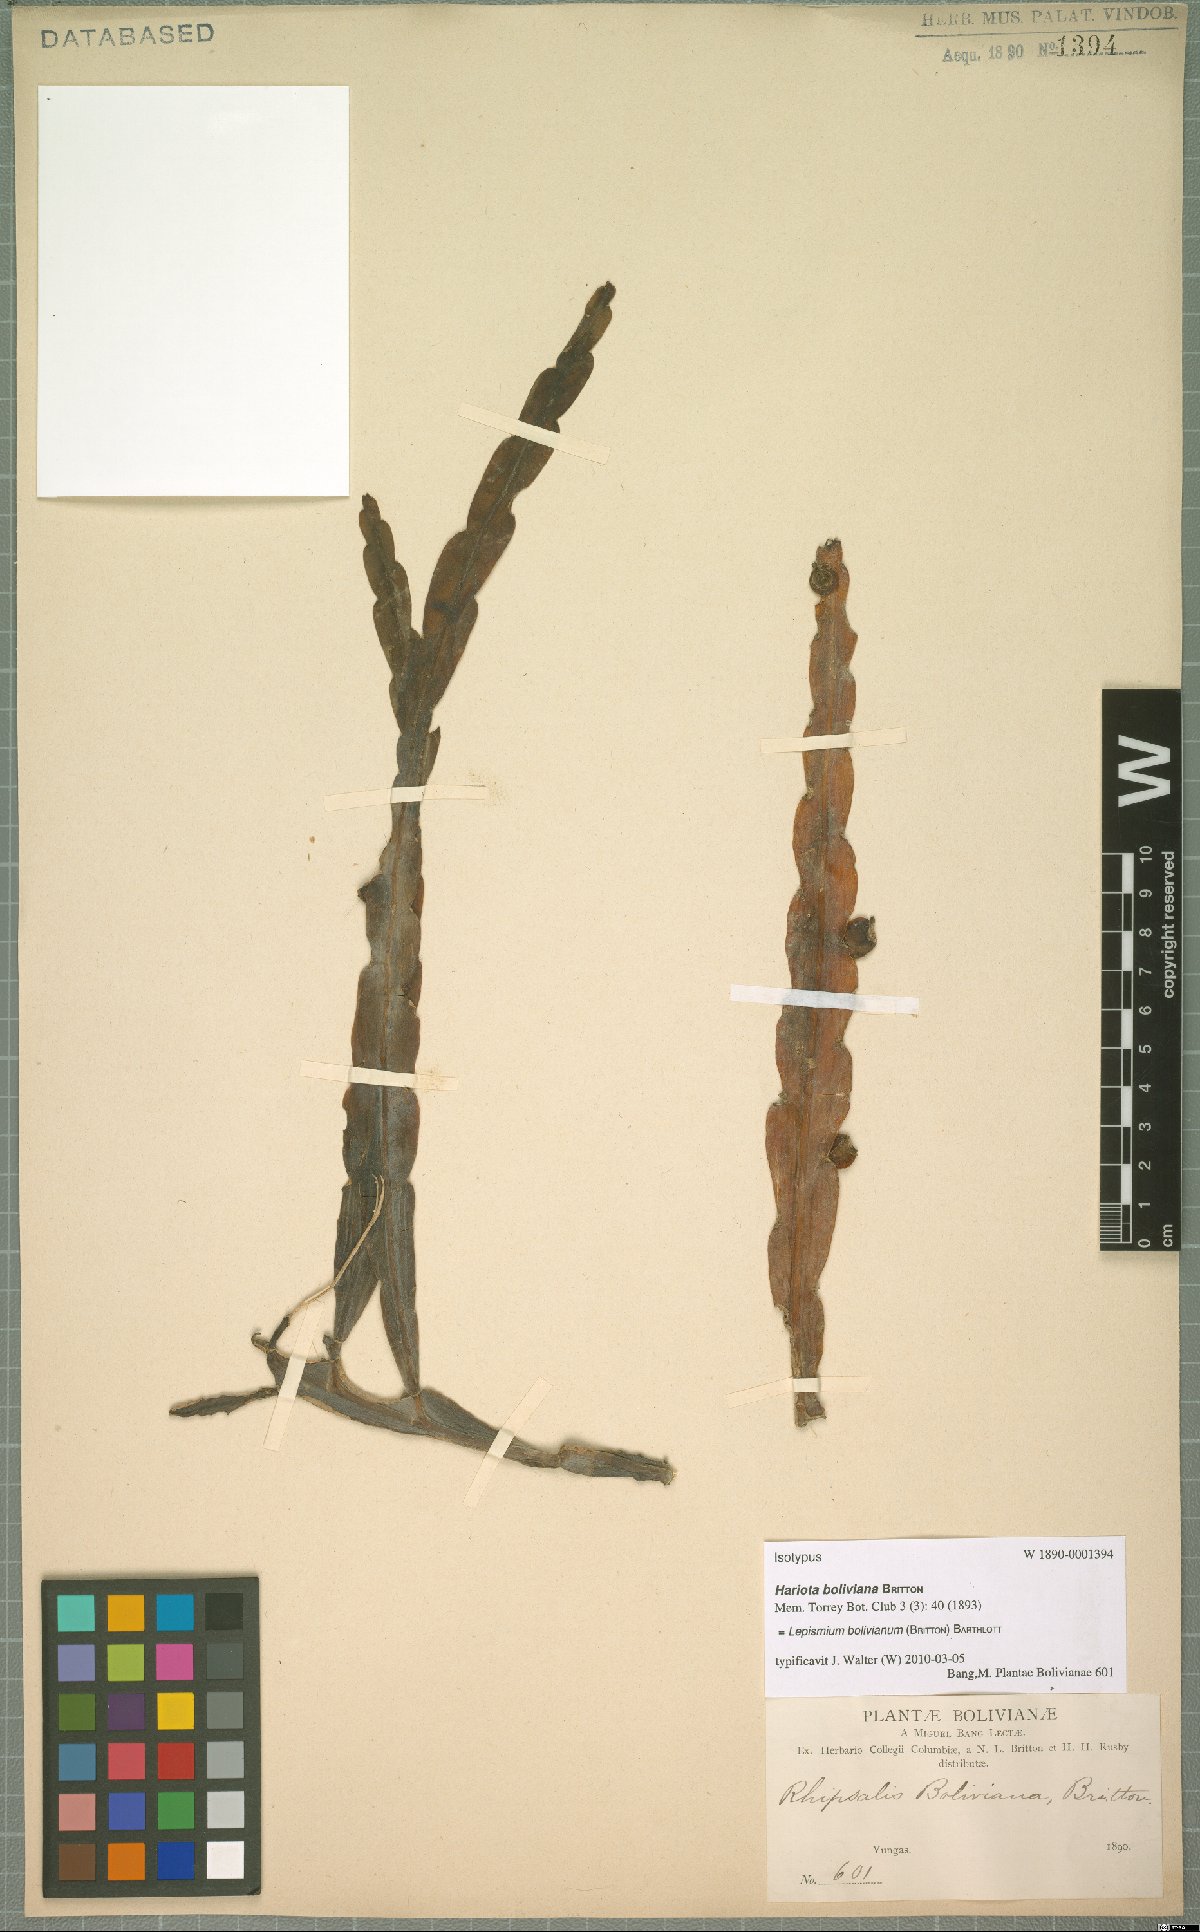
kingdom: Plantae
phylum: Tracheophyta
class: Magnoliopsida
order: Caryophyllales
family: Cactaceae
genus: Pfeiffera
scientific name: Pfeiffera boliviana
